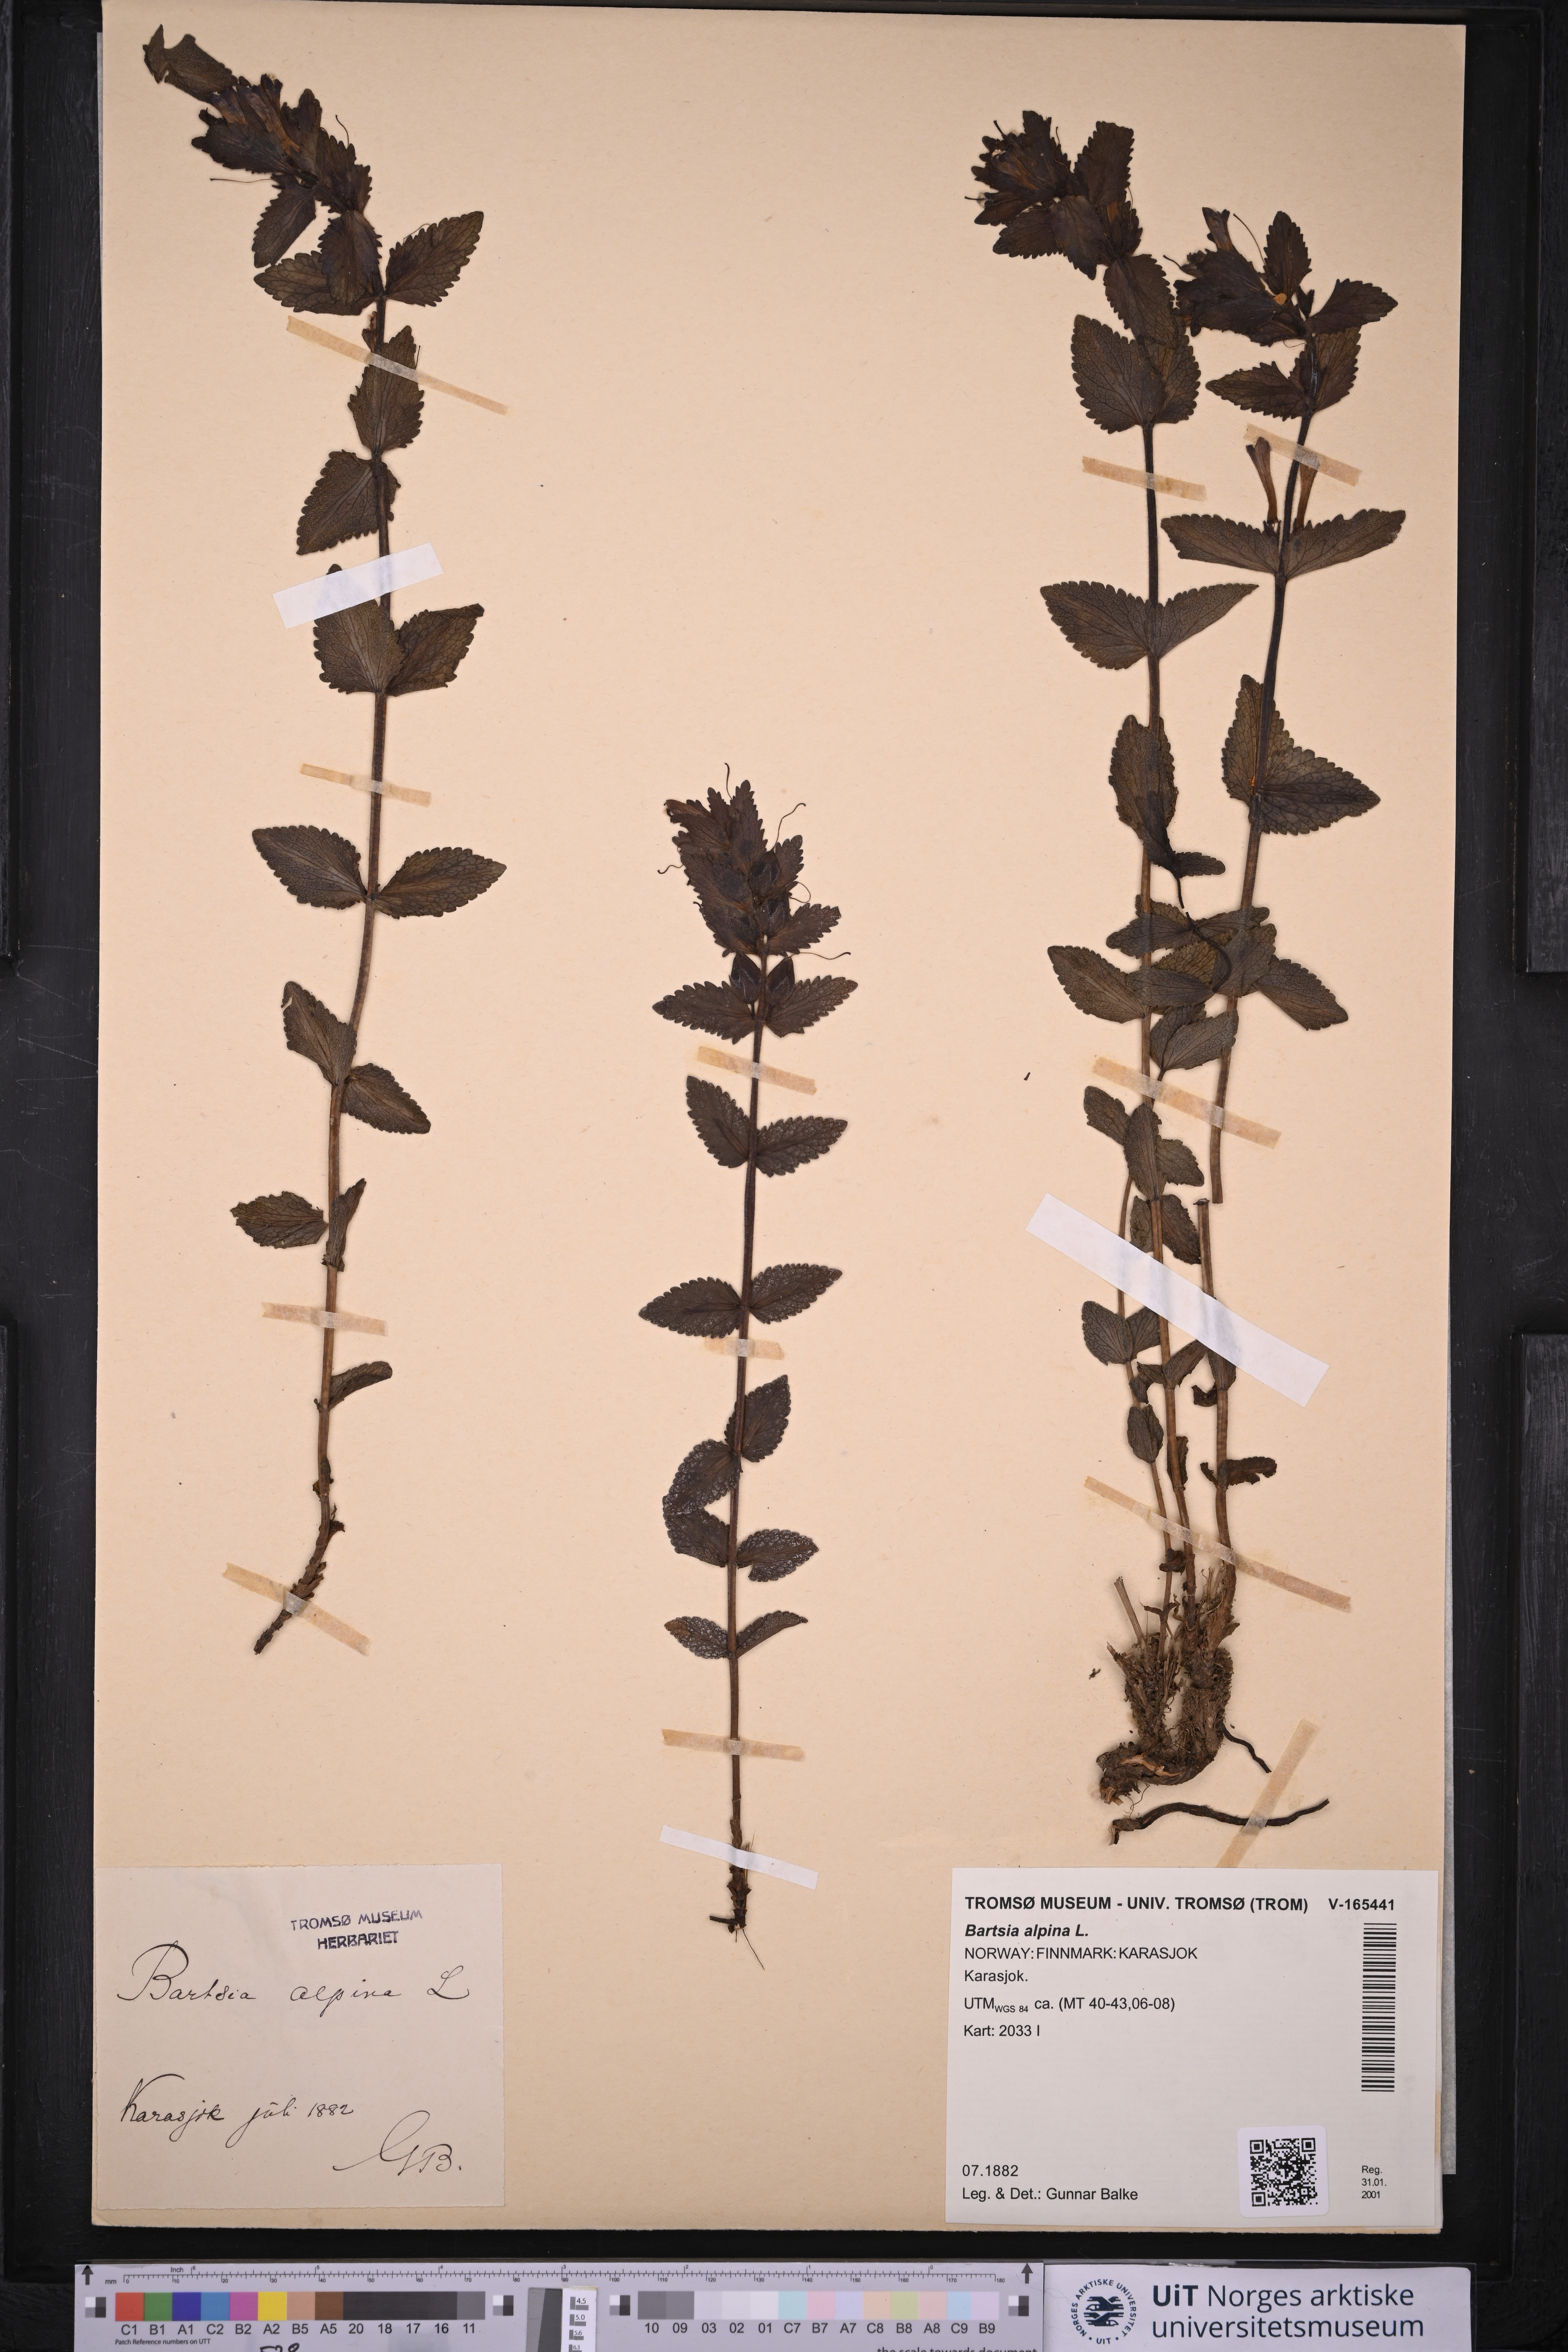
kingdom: Plantae
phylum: Tracheophyta
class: Magnoliopsida
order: Lamiales
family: Orobanchaceae
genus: Bartsia
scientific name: Bartsia alpina
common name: Alpine bartsia
